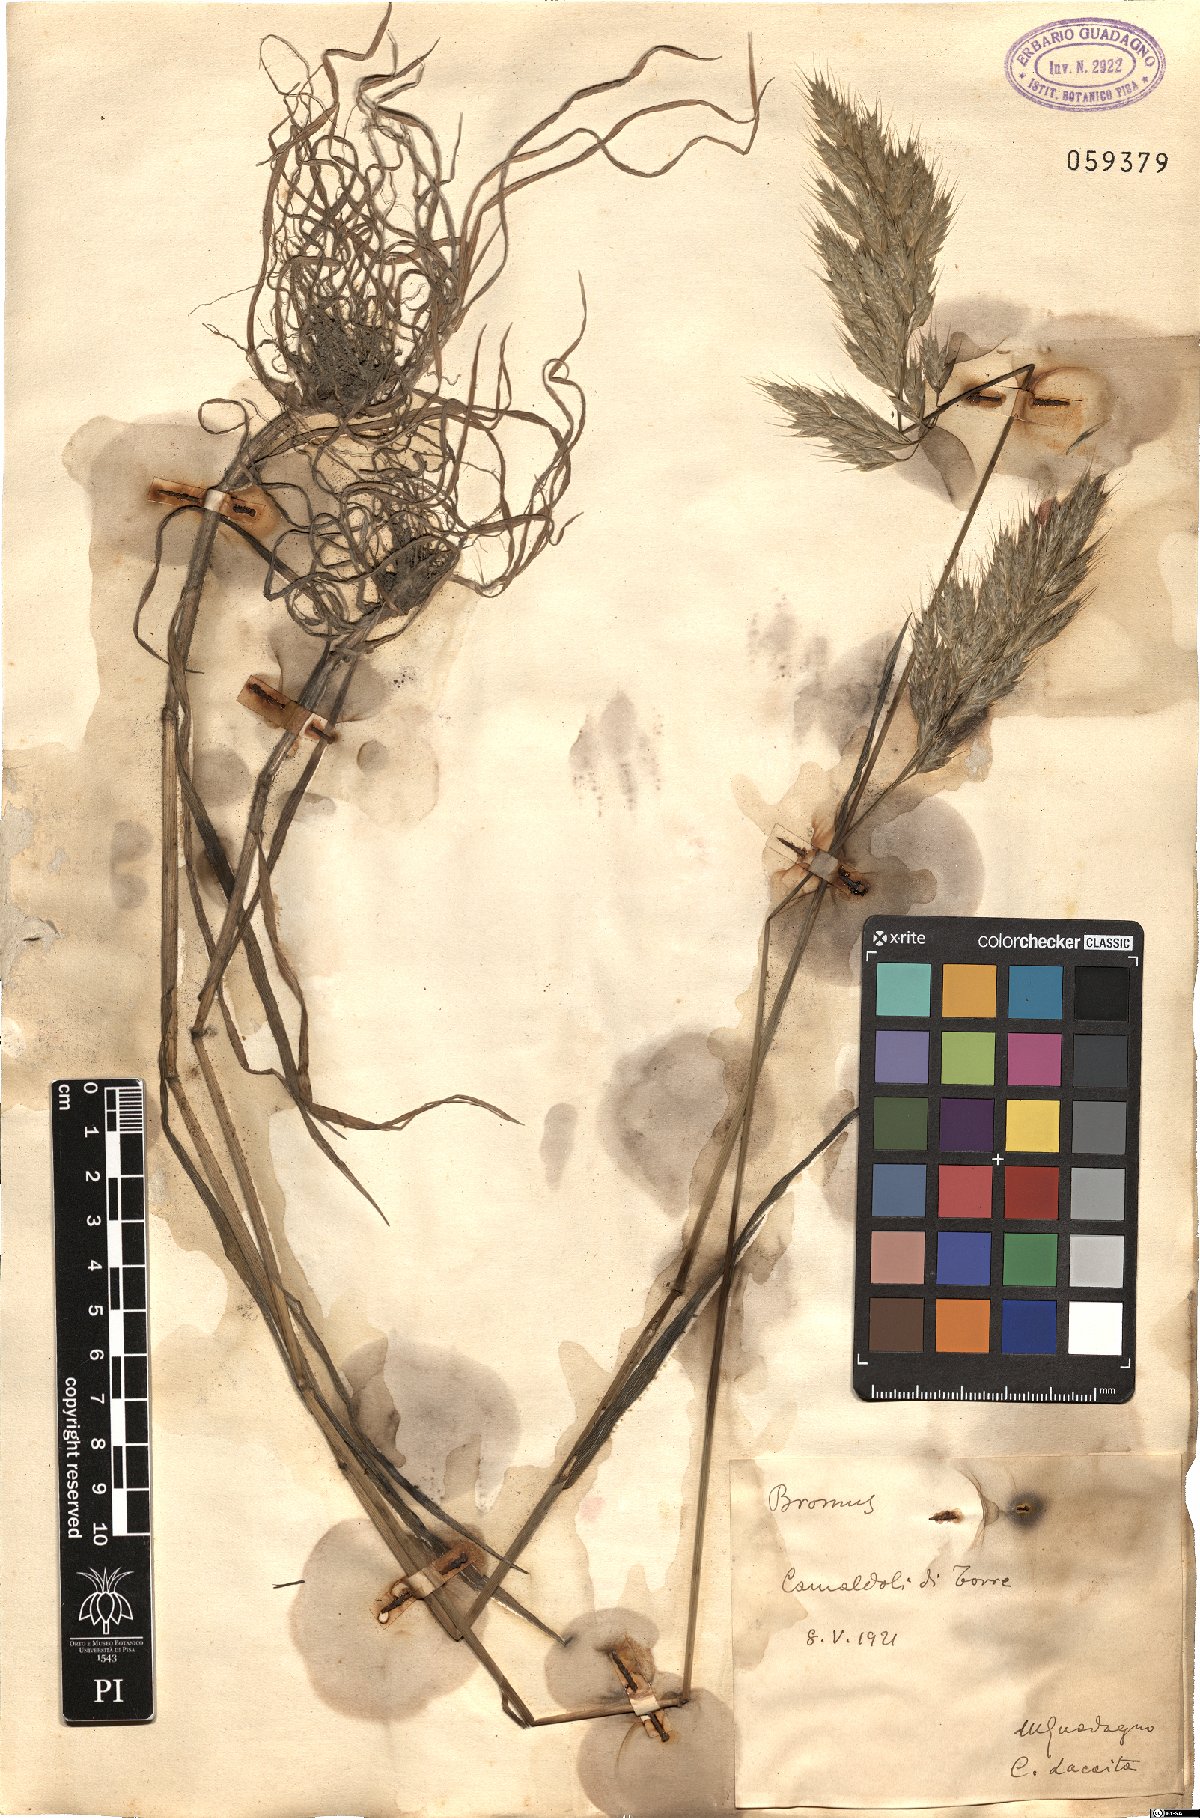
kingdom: Plantae
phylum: Tracheophyta
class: Liliopsida
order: Poales
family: Poaceae
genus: Bromus
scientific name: Bromus
